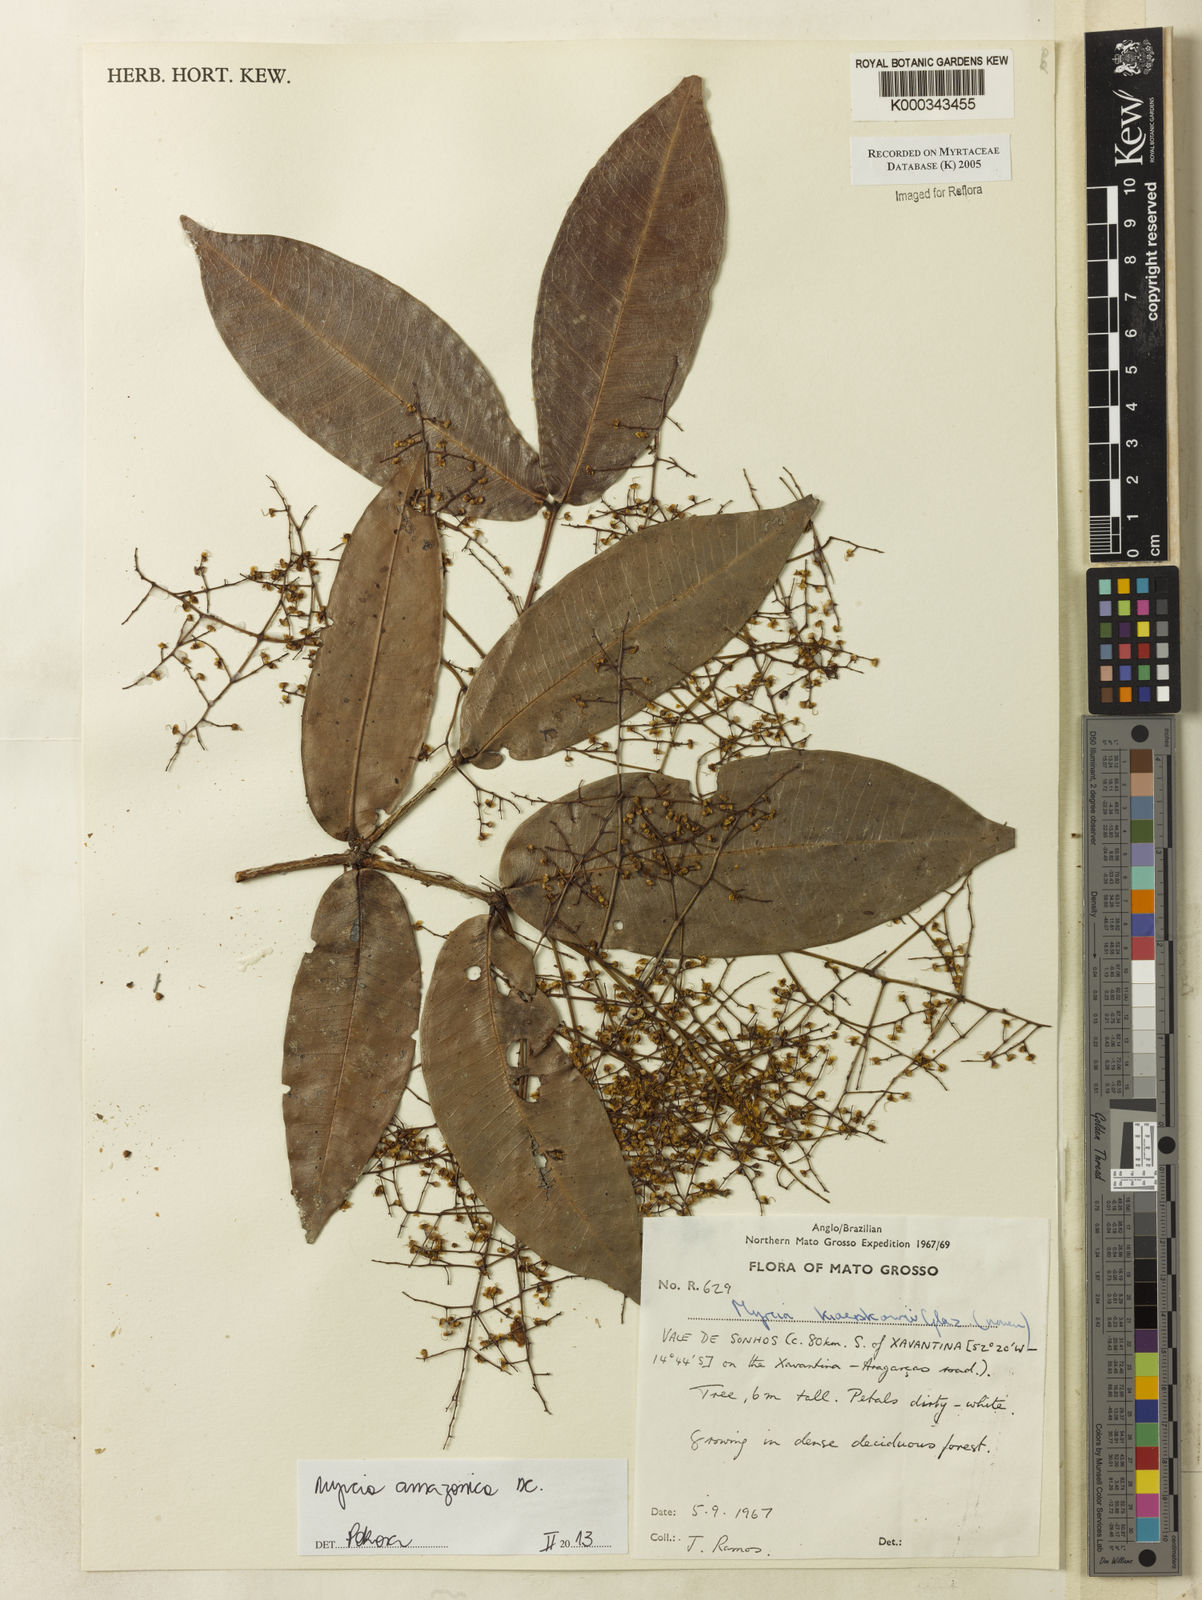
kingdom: Plantae
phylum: Tracheophyta
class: Magnoliopsida
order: Myrtales
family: Myrtaceae
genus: Myrcia
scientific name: Myrcia
